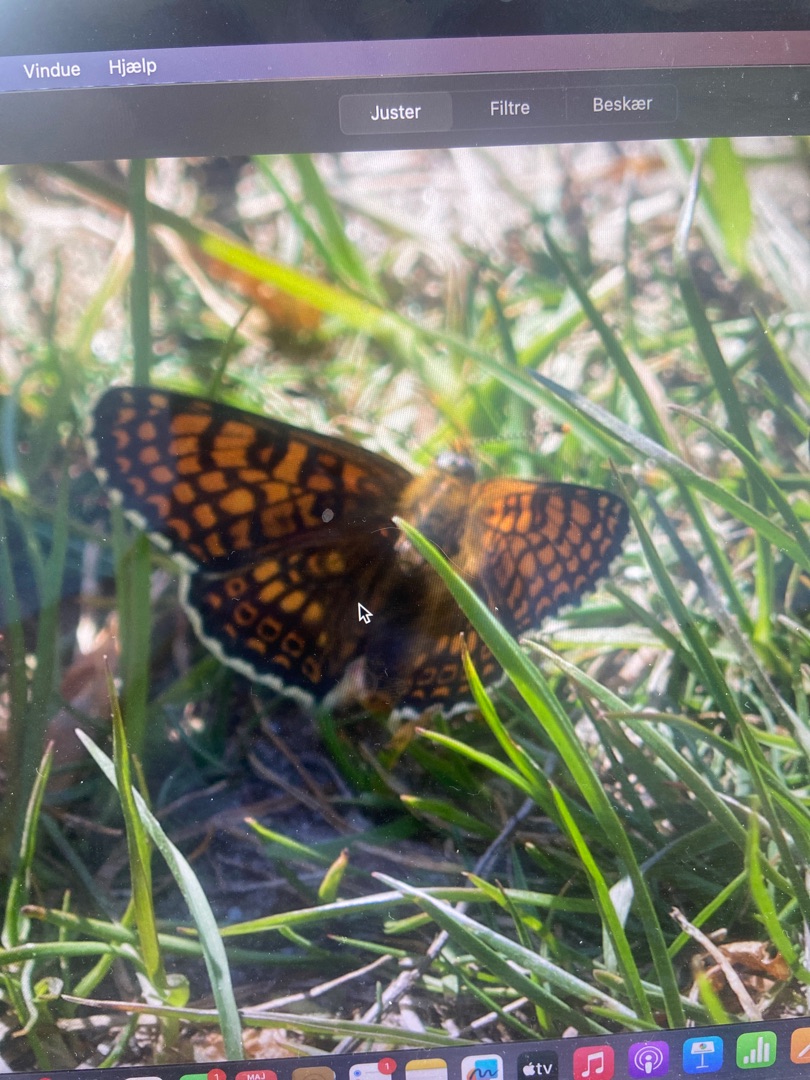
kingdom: Animalia
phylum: Arthropoda
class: Insecta
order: Lepidoptera
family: Nymphalidae
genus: Melitaea
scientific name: Melitaea cinxia
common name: Okkergul pletvinge
